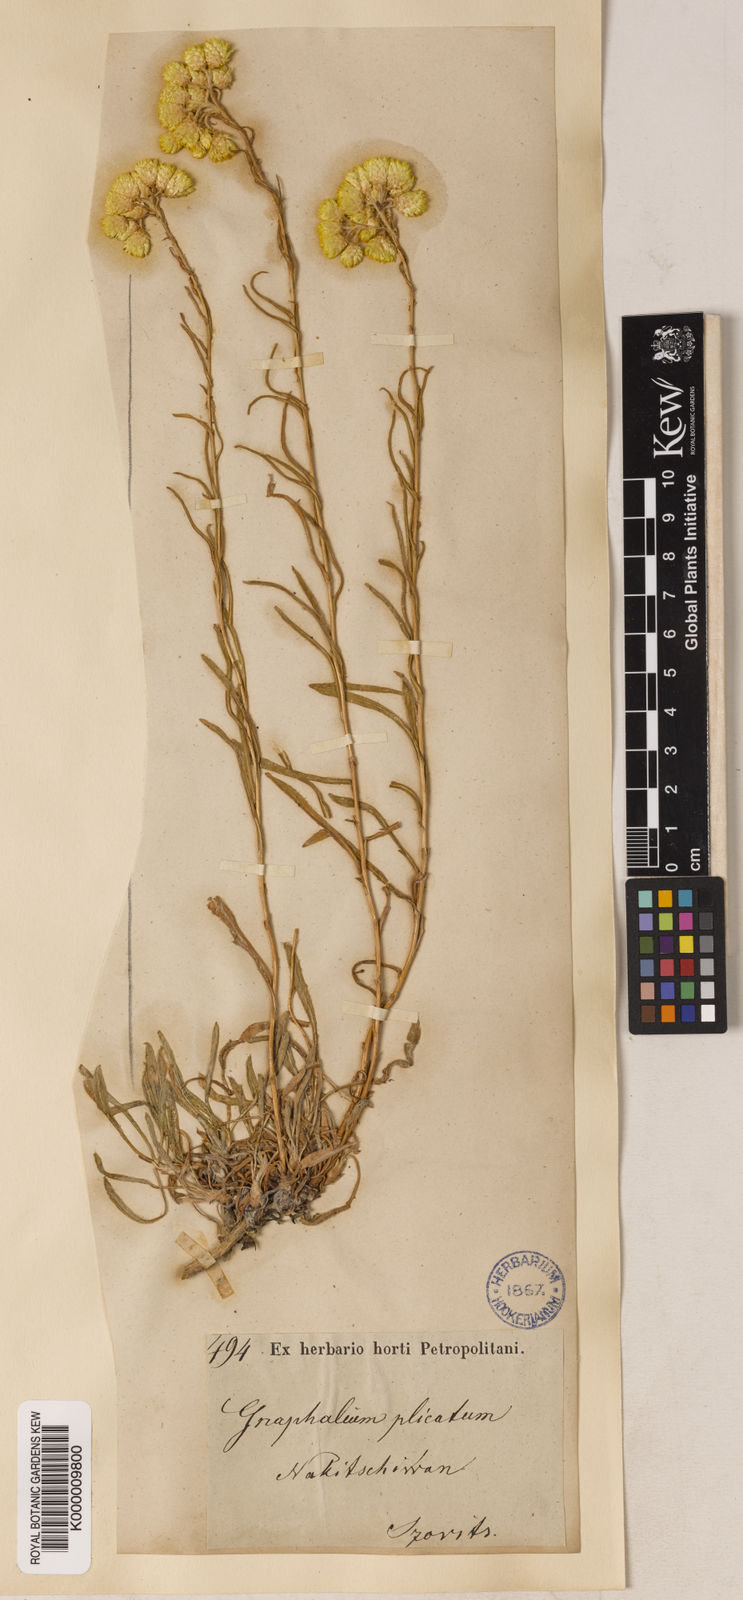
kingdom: Plantae
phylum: Tracheophyta
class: Magnoliopsida
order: Asterales
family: Asteraceae
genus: Helichrysum
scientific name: Helichrysum plicatum
